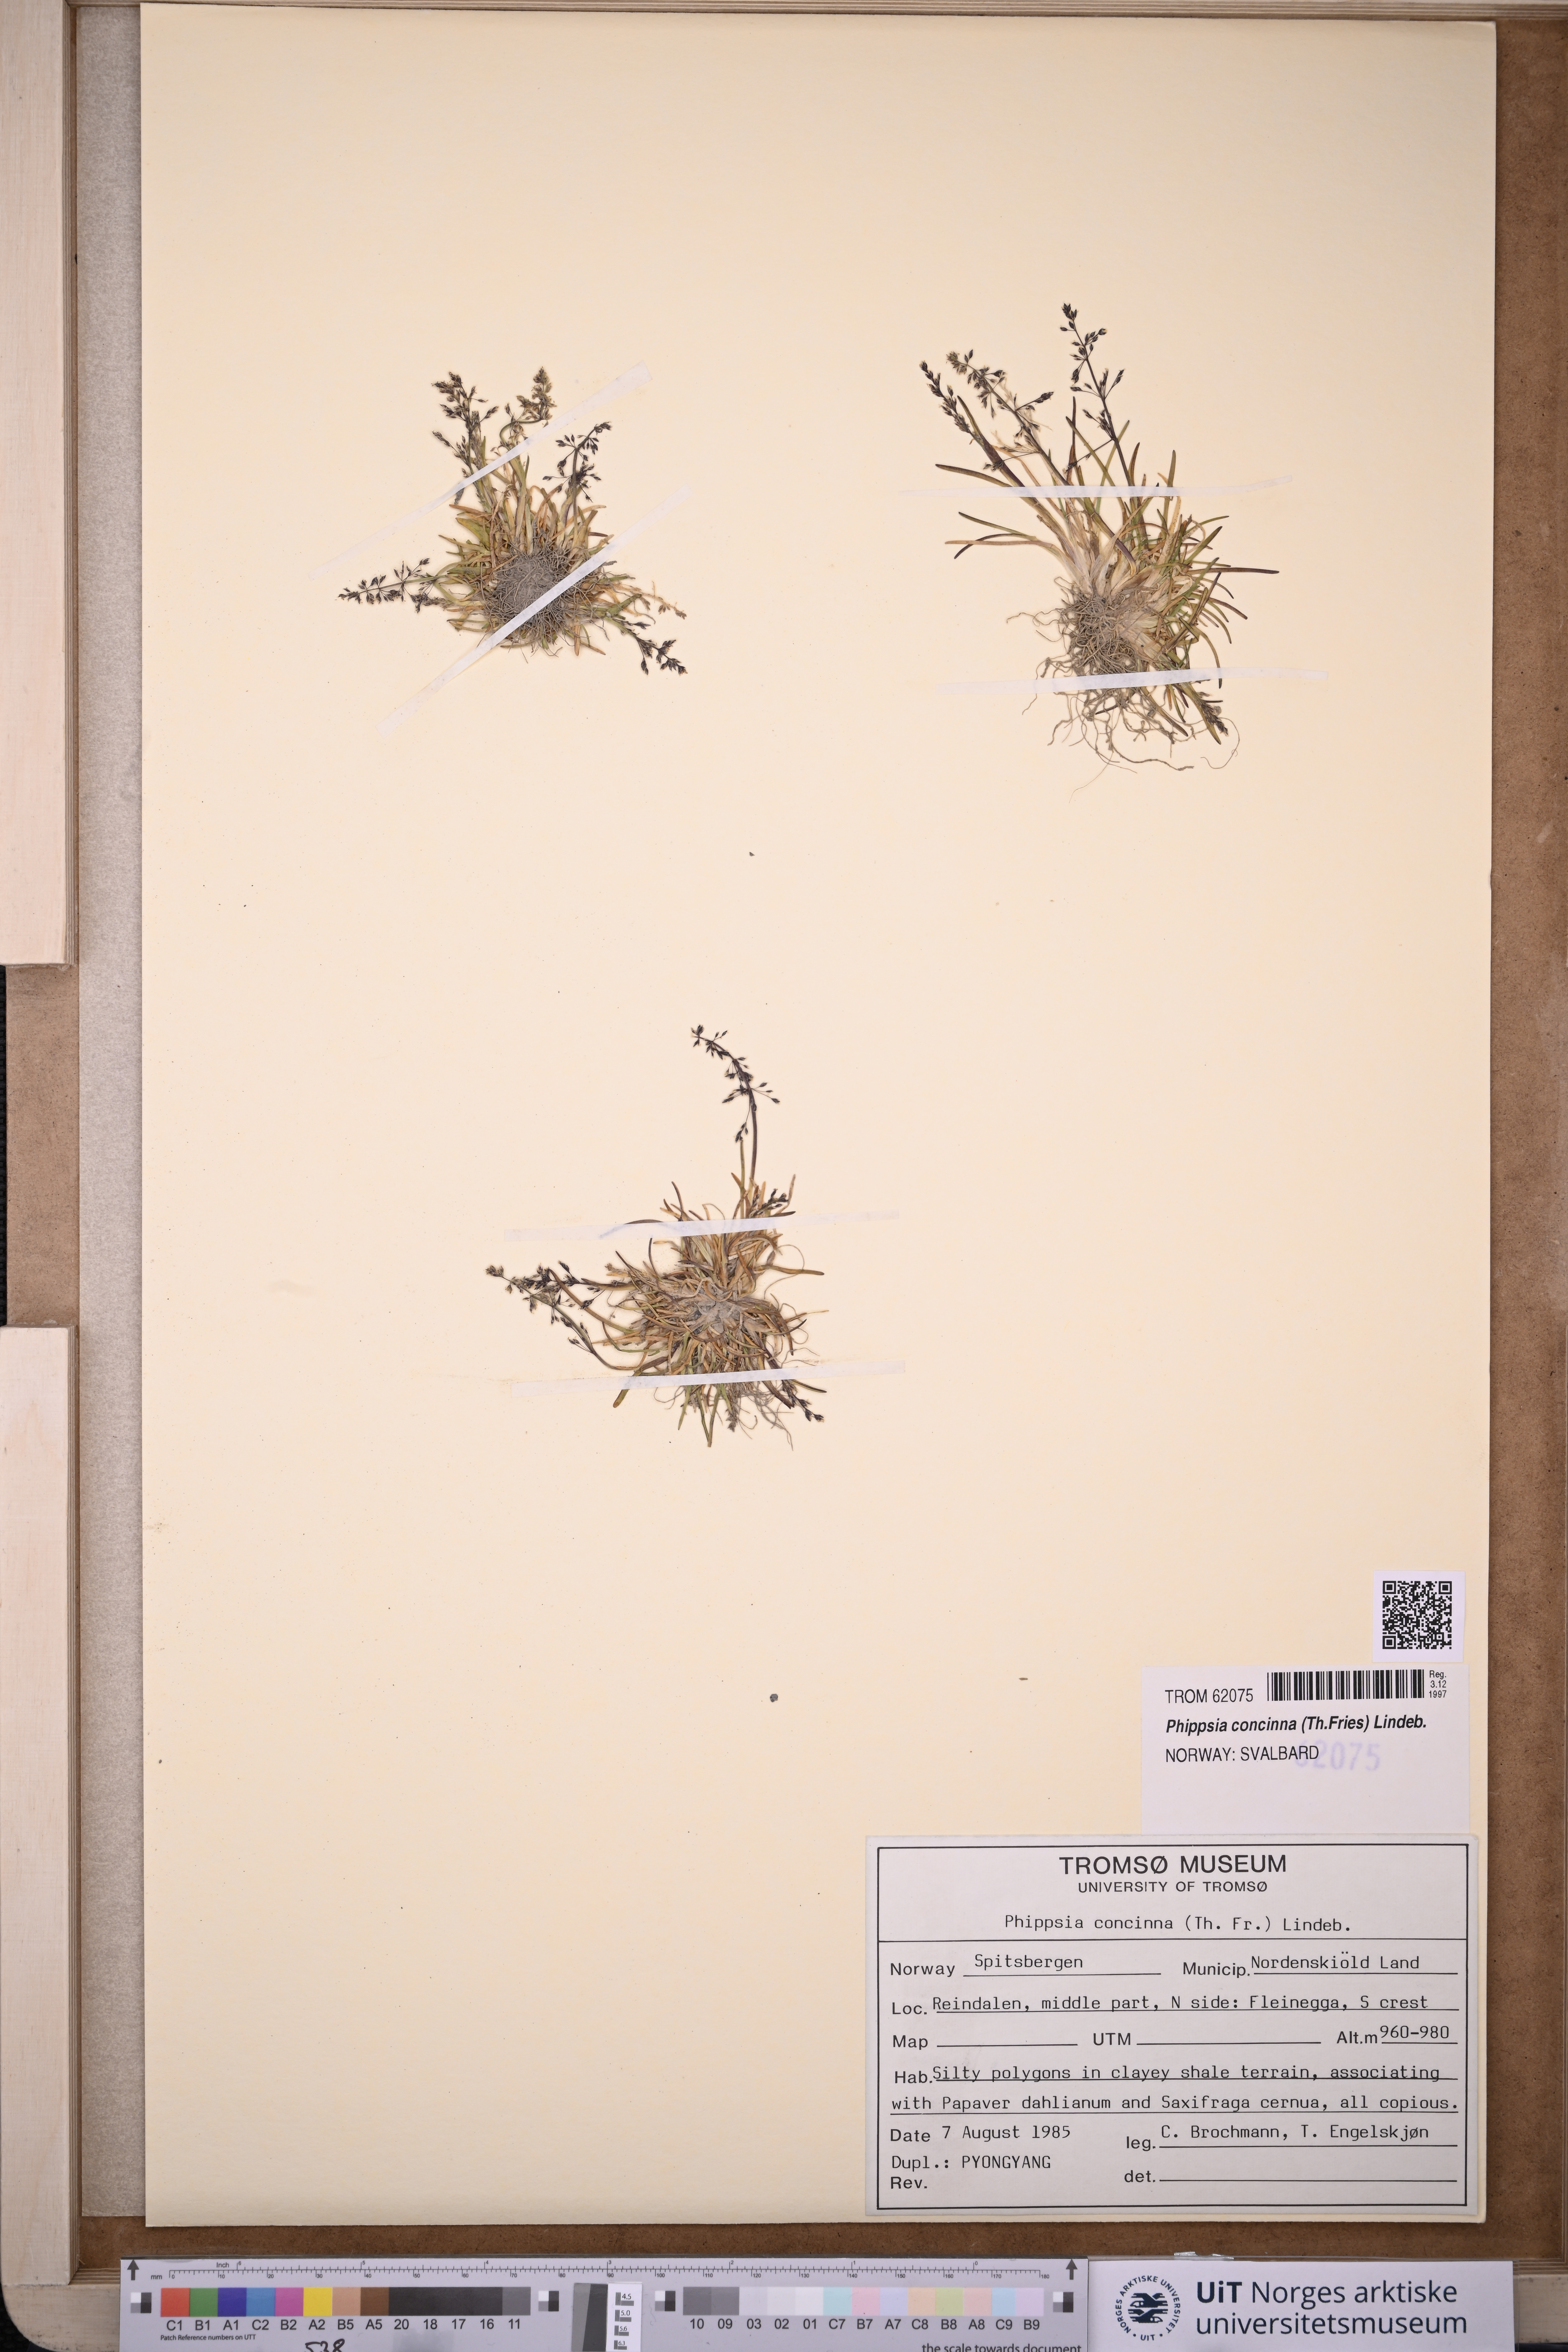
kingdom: Plantae
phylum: Tracheophyta
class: Liliopsida
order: Poales
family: Poaceae
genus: Phippsia
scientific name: Phippsia concinna
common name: Snowgrass
